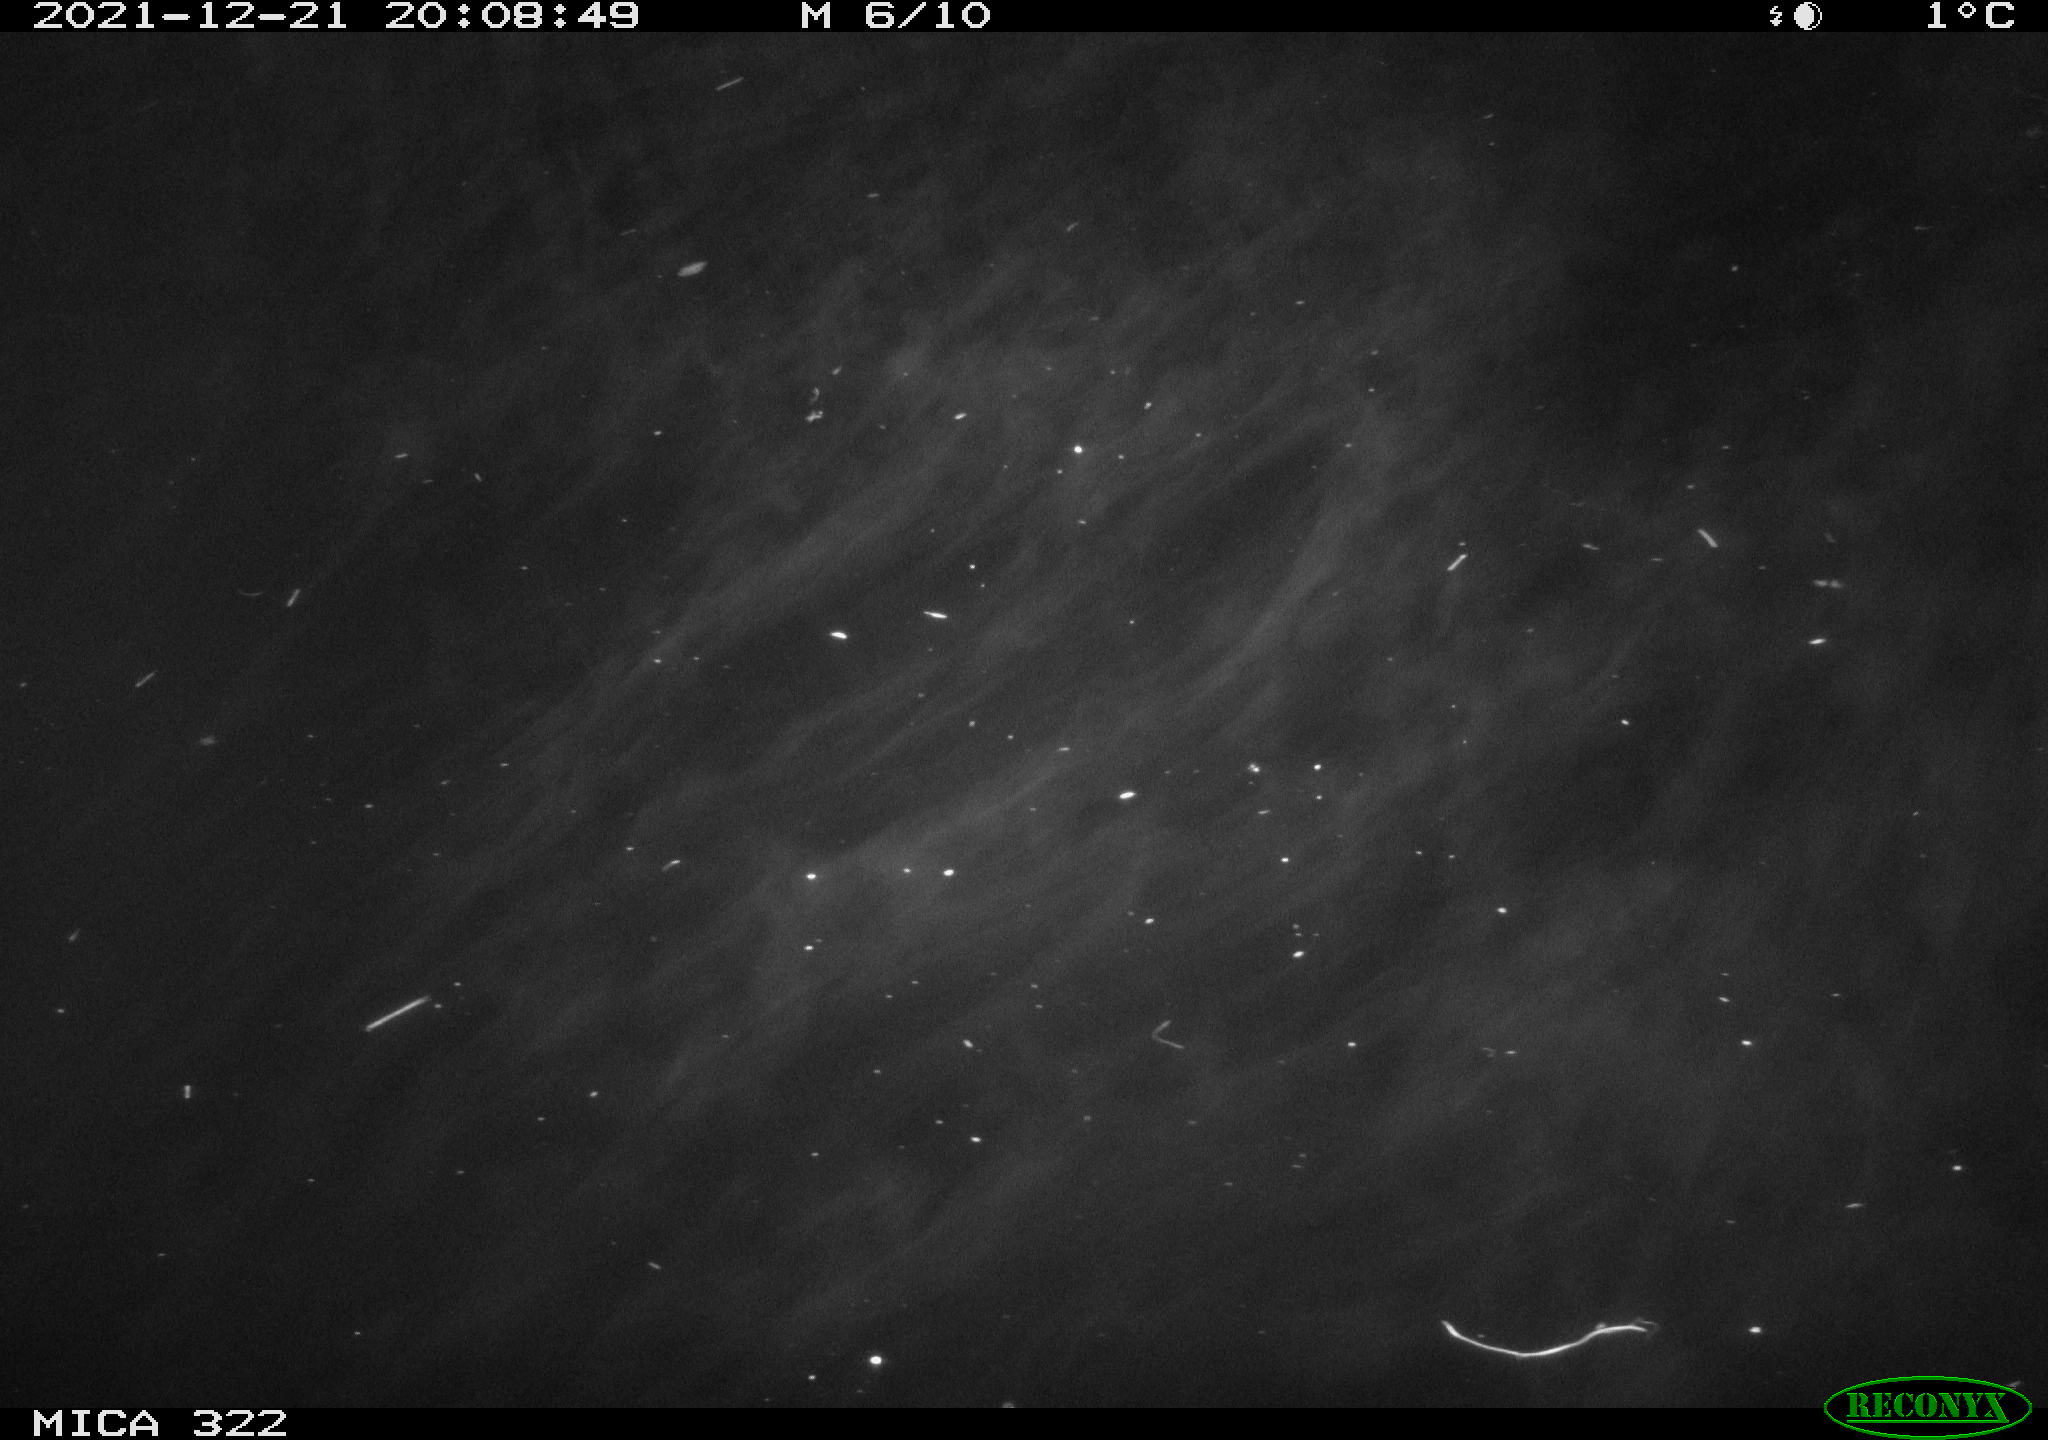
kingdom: Animalia
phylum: Chordata
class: Mammalia
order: Rodentia
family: Muridae
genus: Rattus
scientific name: Rattus norvegicus
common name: Brown rat
